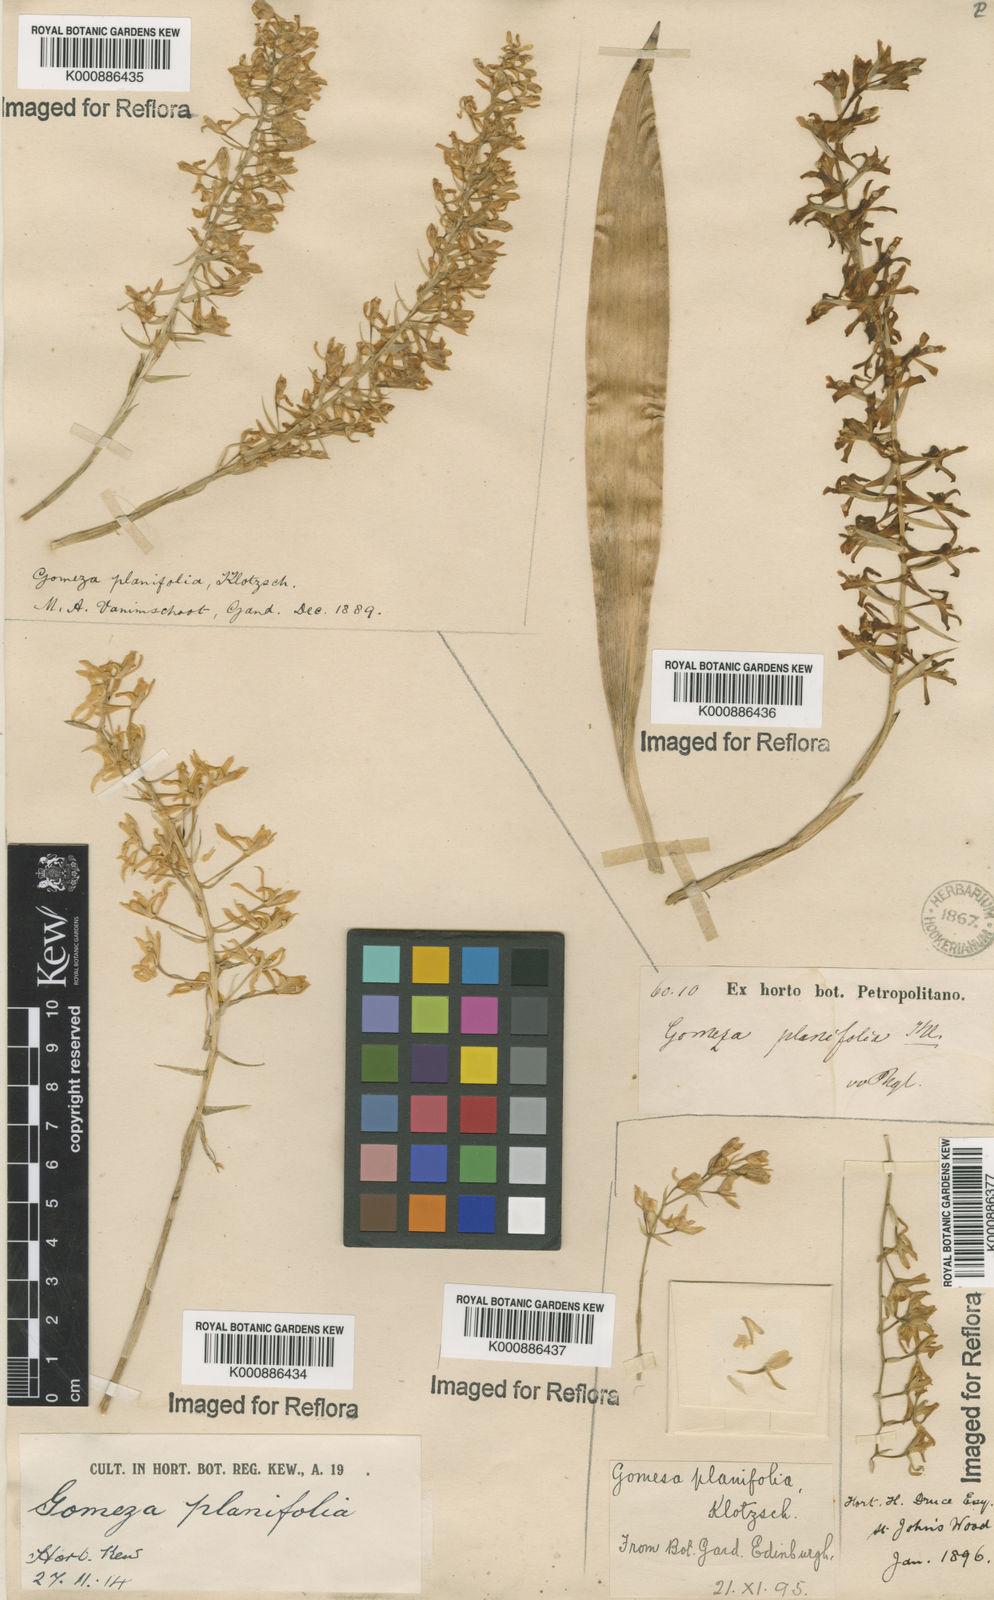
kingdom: Plantae
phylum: Tracheophyta
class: Liliopsida
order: Asparagales
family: Orchidaceae
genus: Gomesa
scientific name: Gomesa recurva
